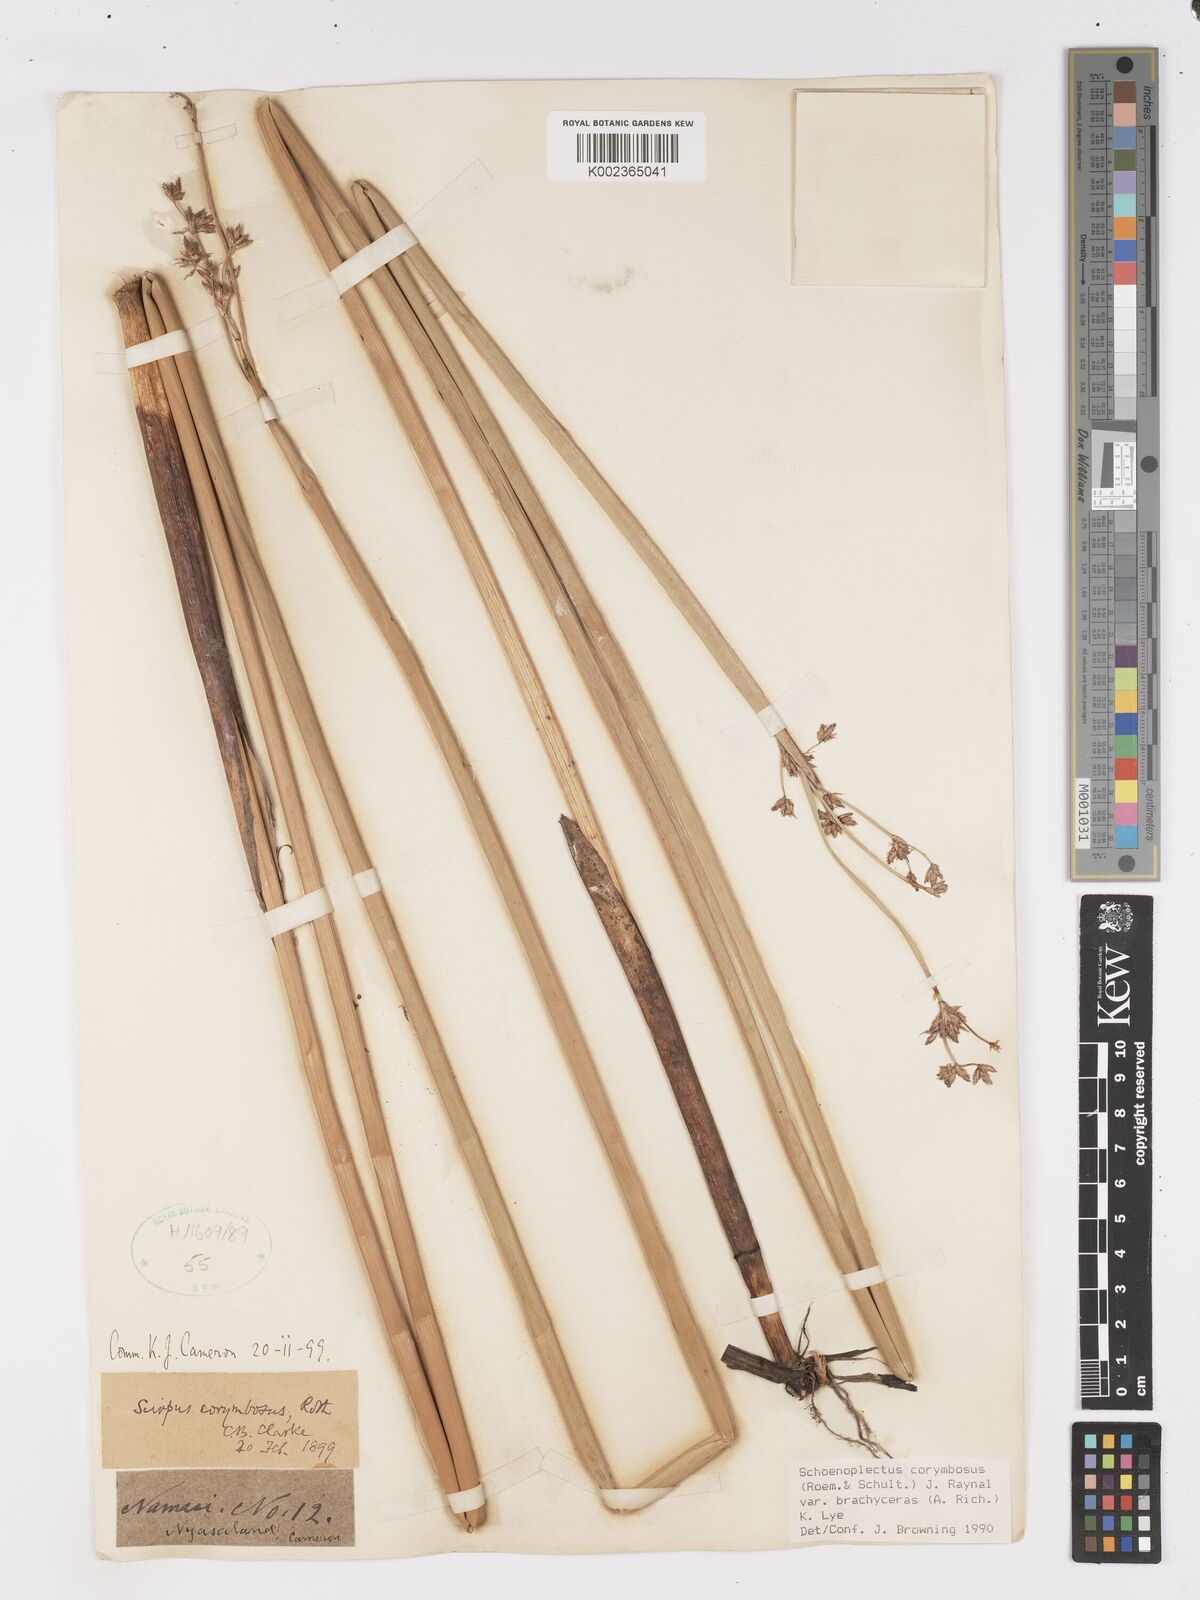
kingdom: Plantae
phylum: Tracheophyta
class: Liliopsida
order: Poales
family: Cyperaceae
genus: Schoenoplectiella
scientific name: Schoenoplectiella brachyceras
